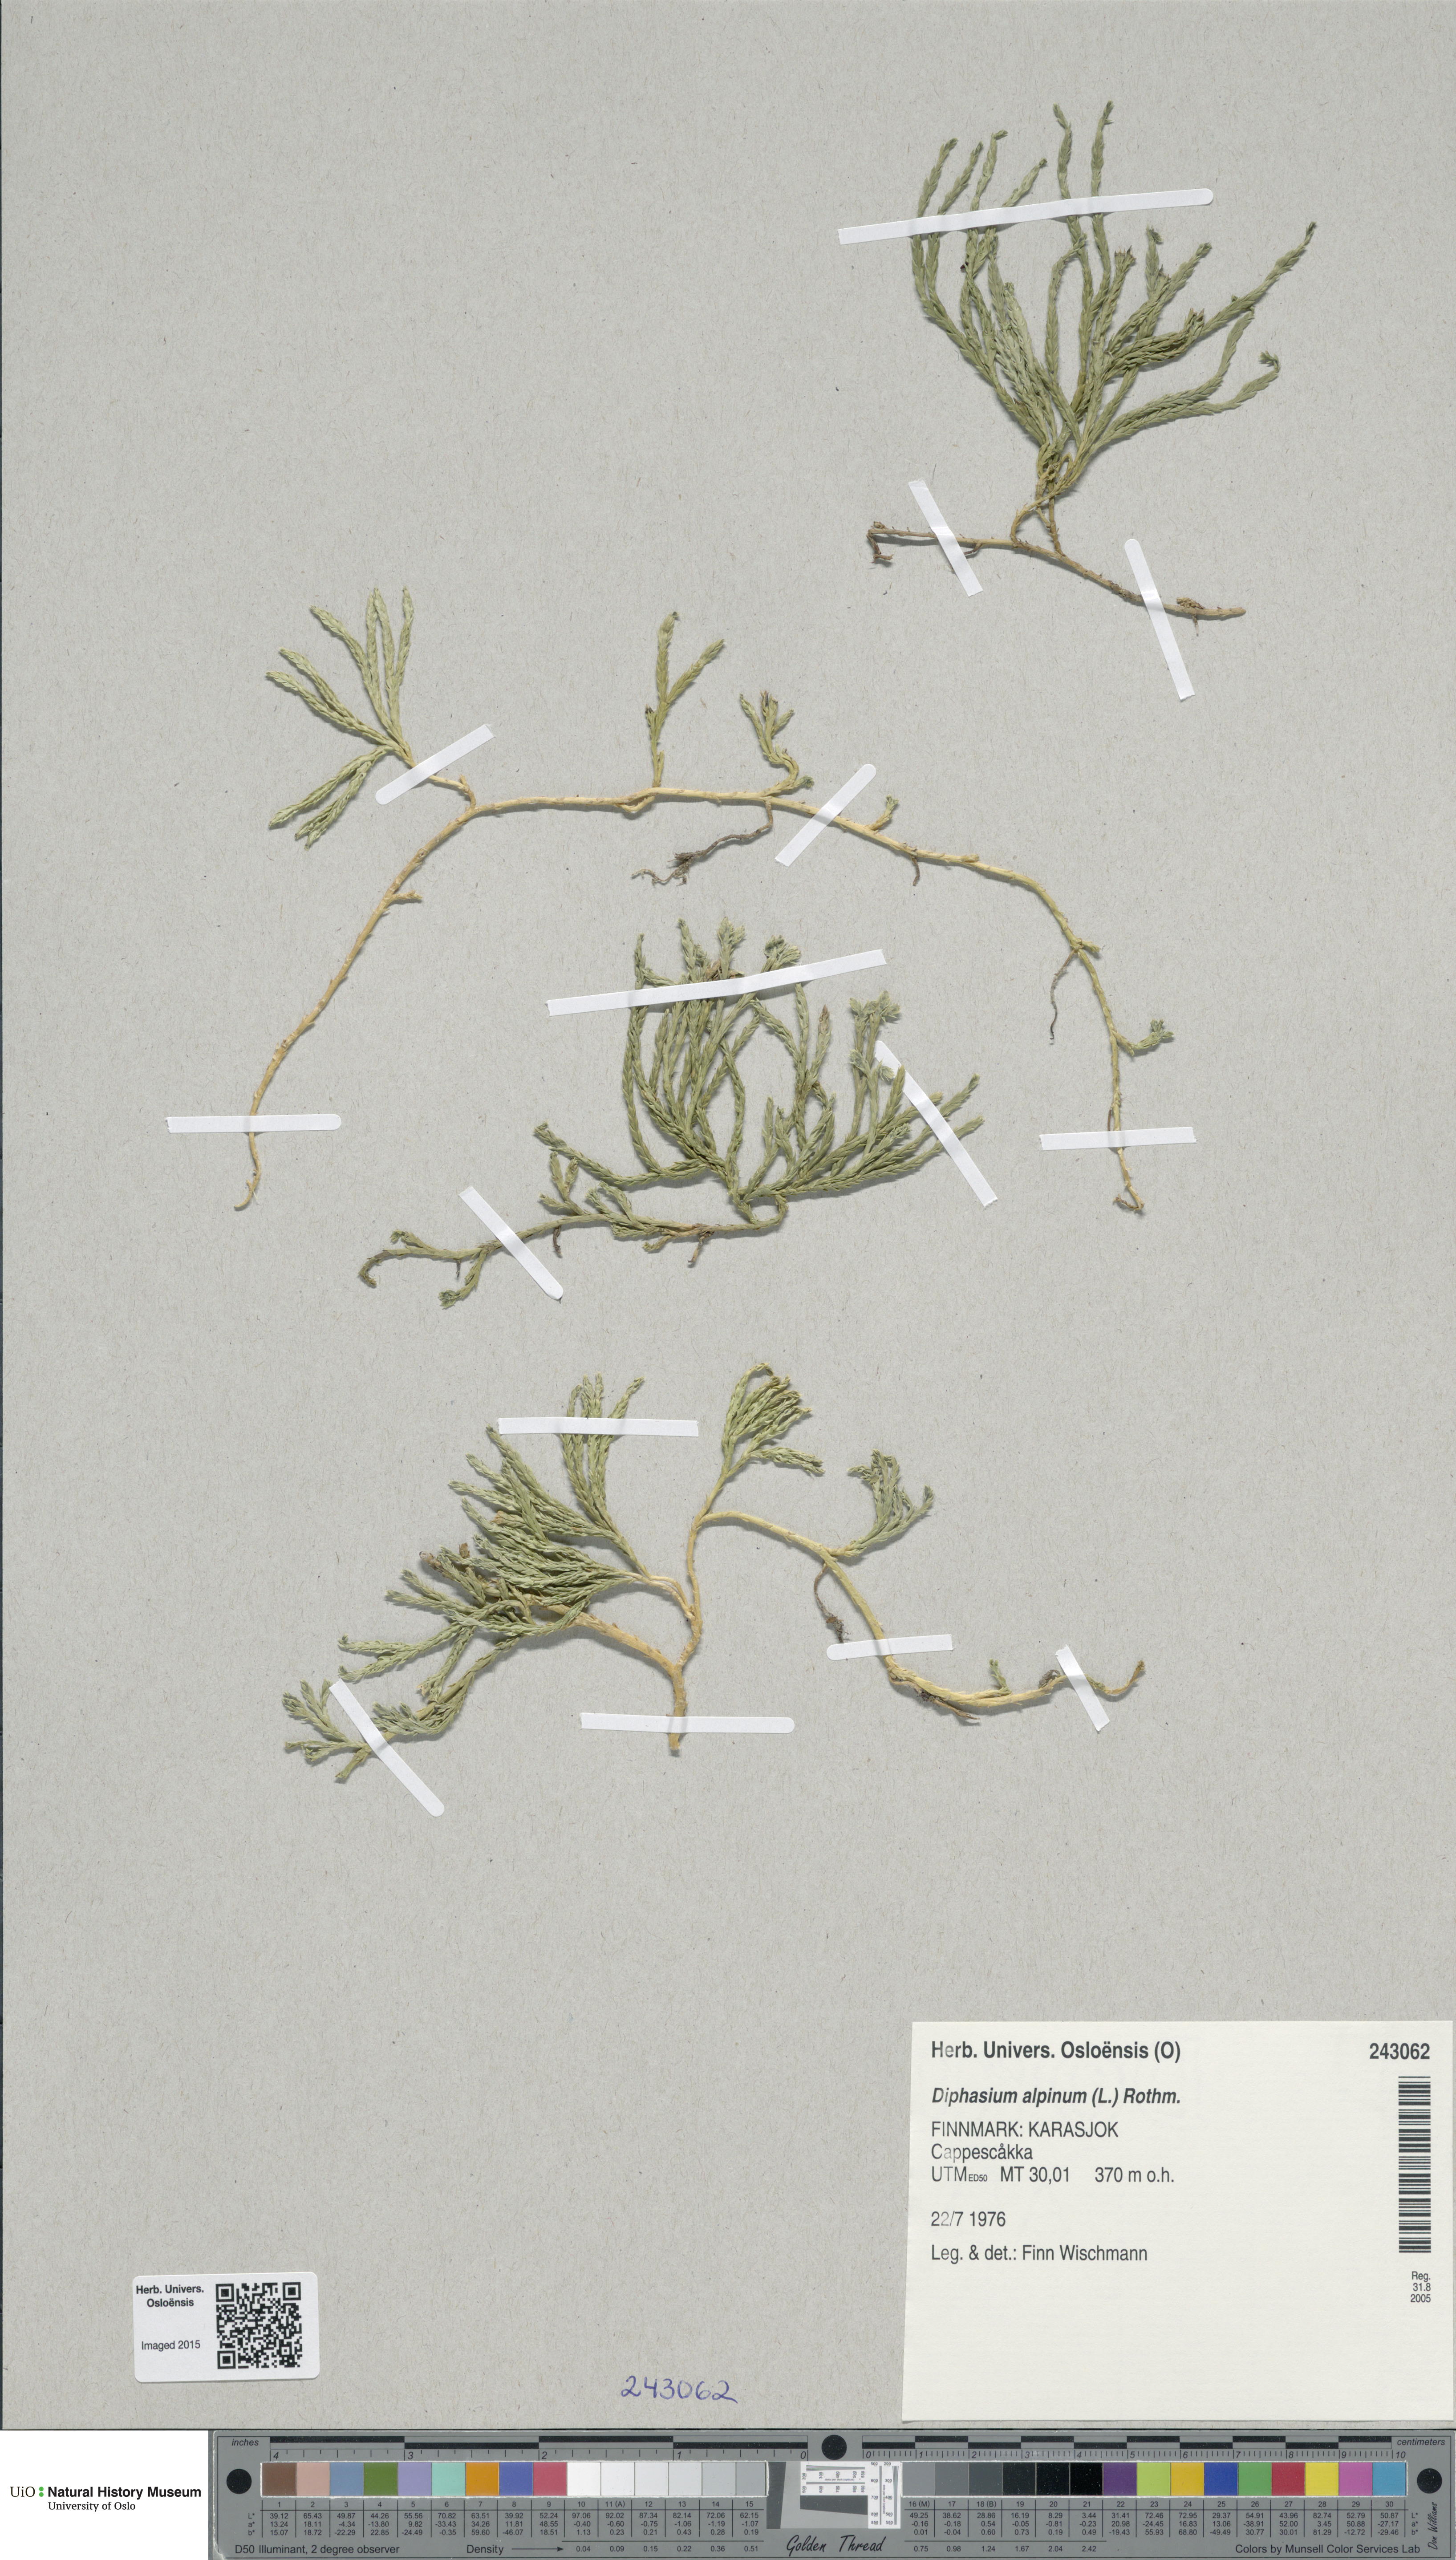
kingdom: Plantae
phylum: Tracheophyta
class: Lycopodiopsida
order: Lycopodiales
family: Lycopodiaceae
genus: Diphasiastrum
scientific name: Diphasiastrum alpinum
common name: Alpine clubmoss
